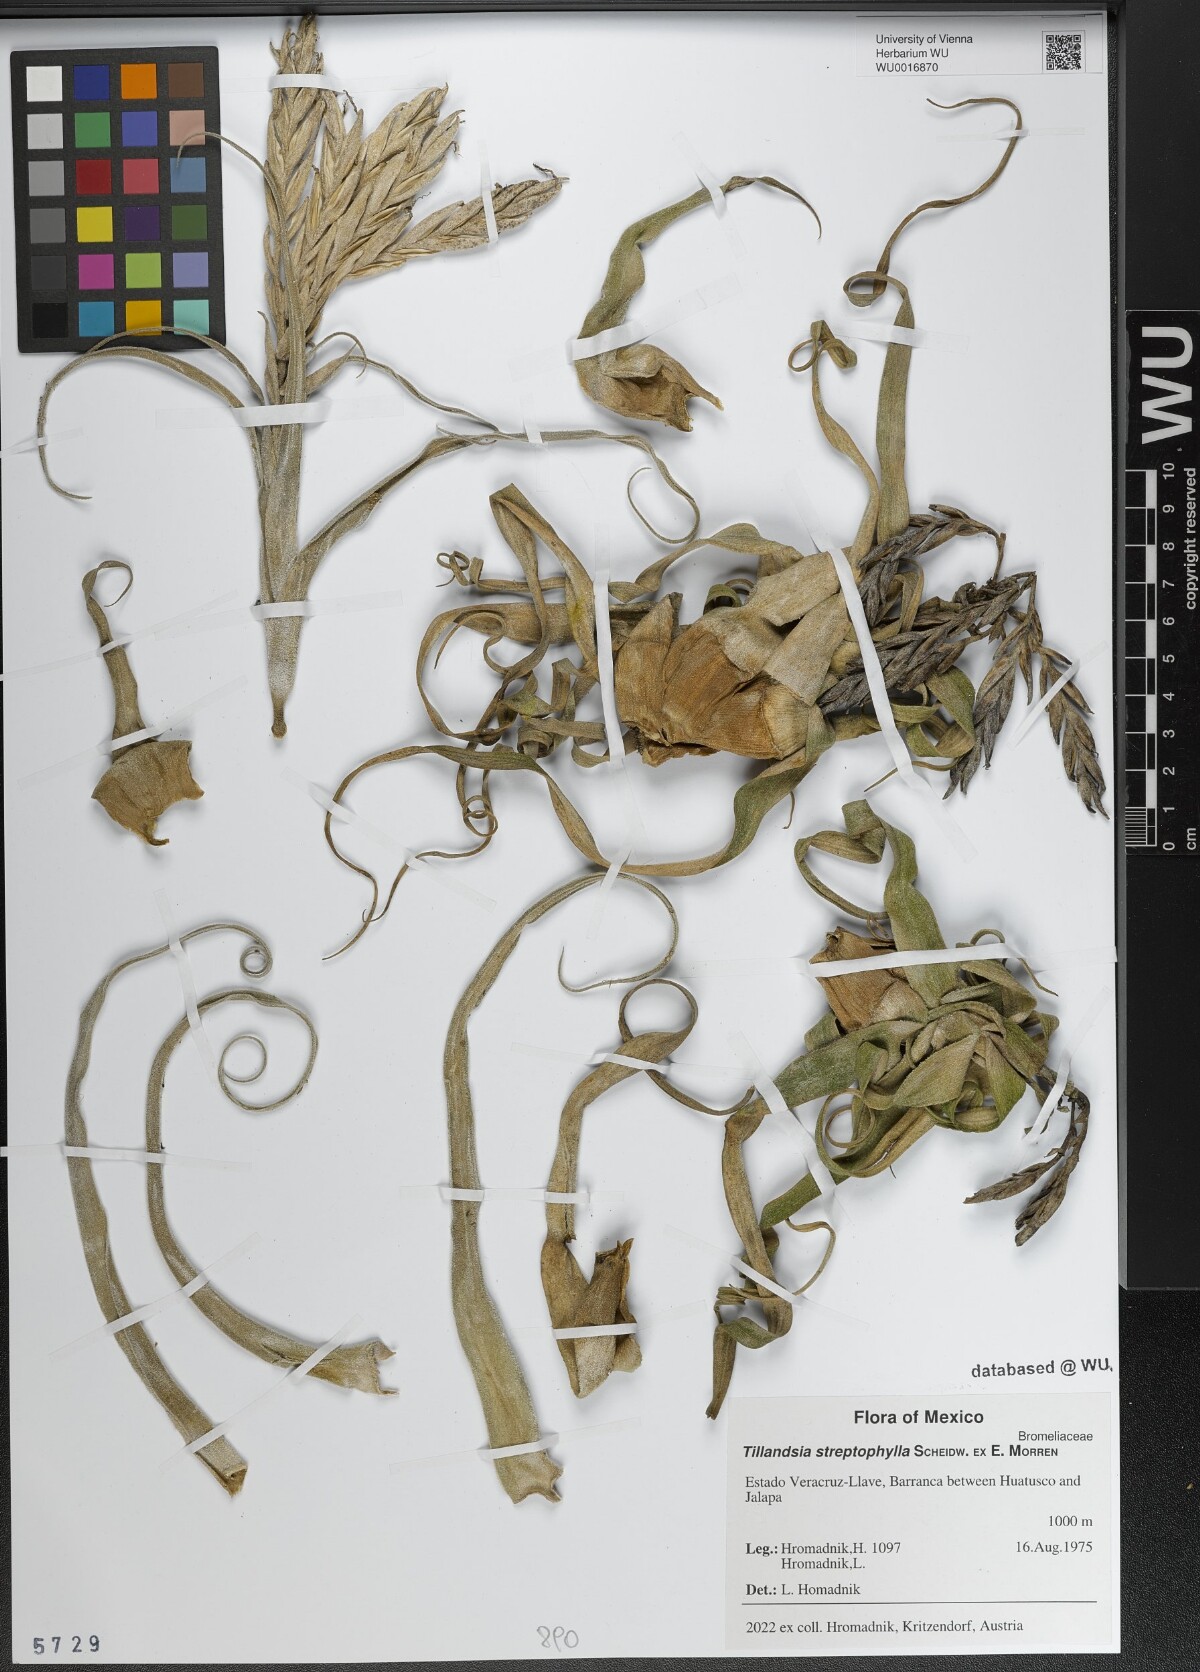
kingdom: Plantae
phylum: Tracheophyta
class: Liliopsida
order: Poales
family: Bromeliaceae
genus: Tillandsia
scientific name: Tillandsia streptophylla
